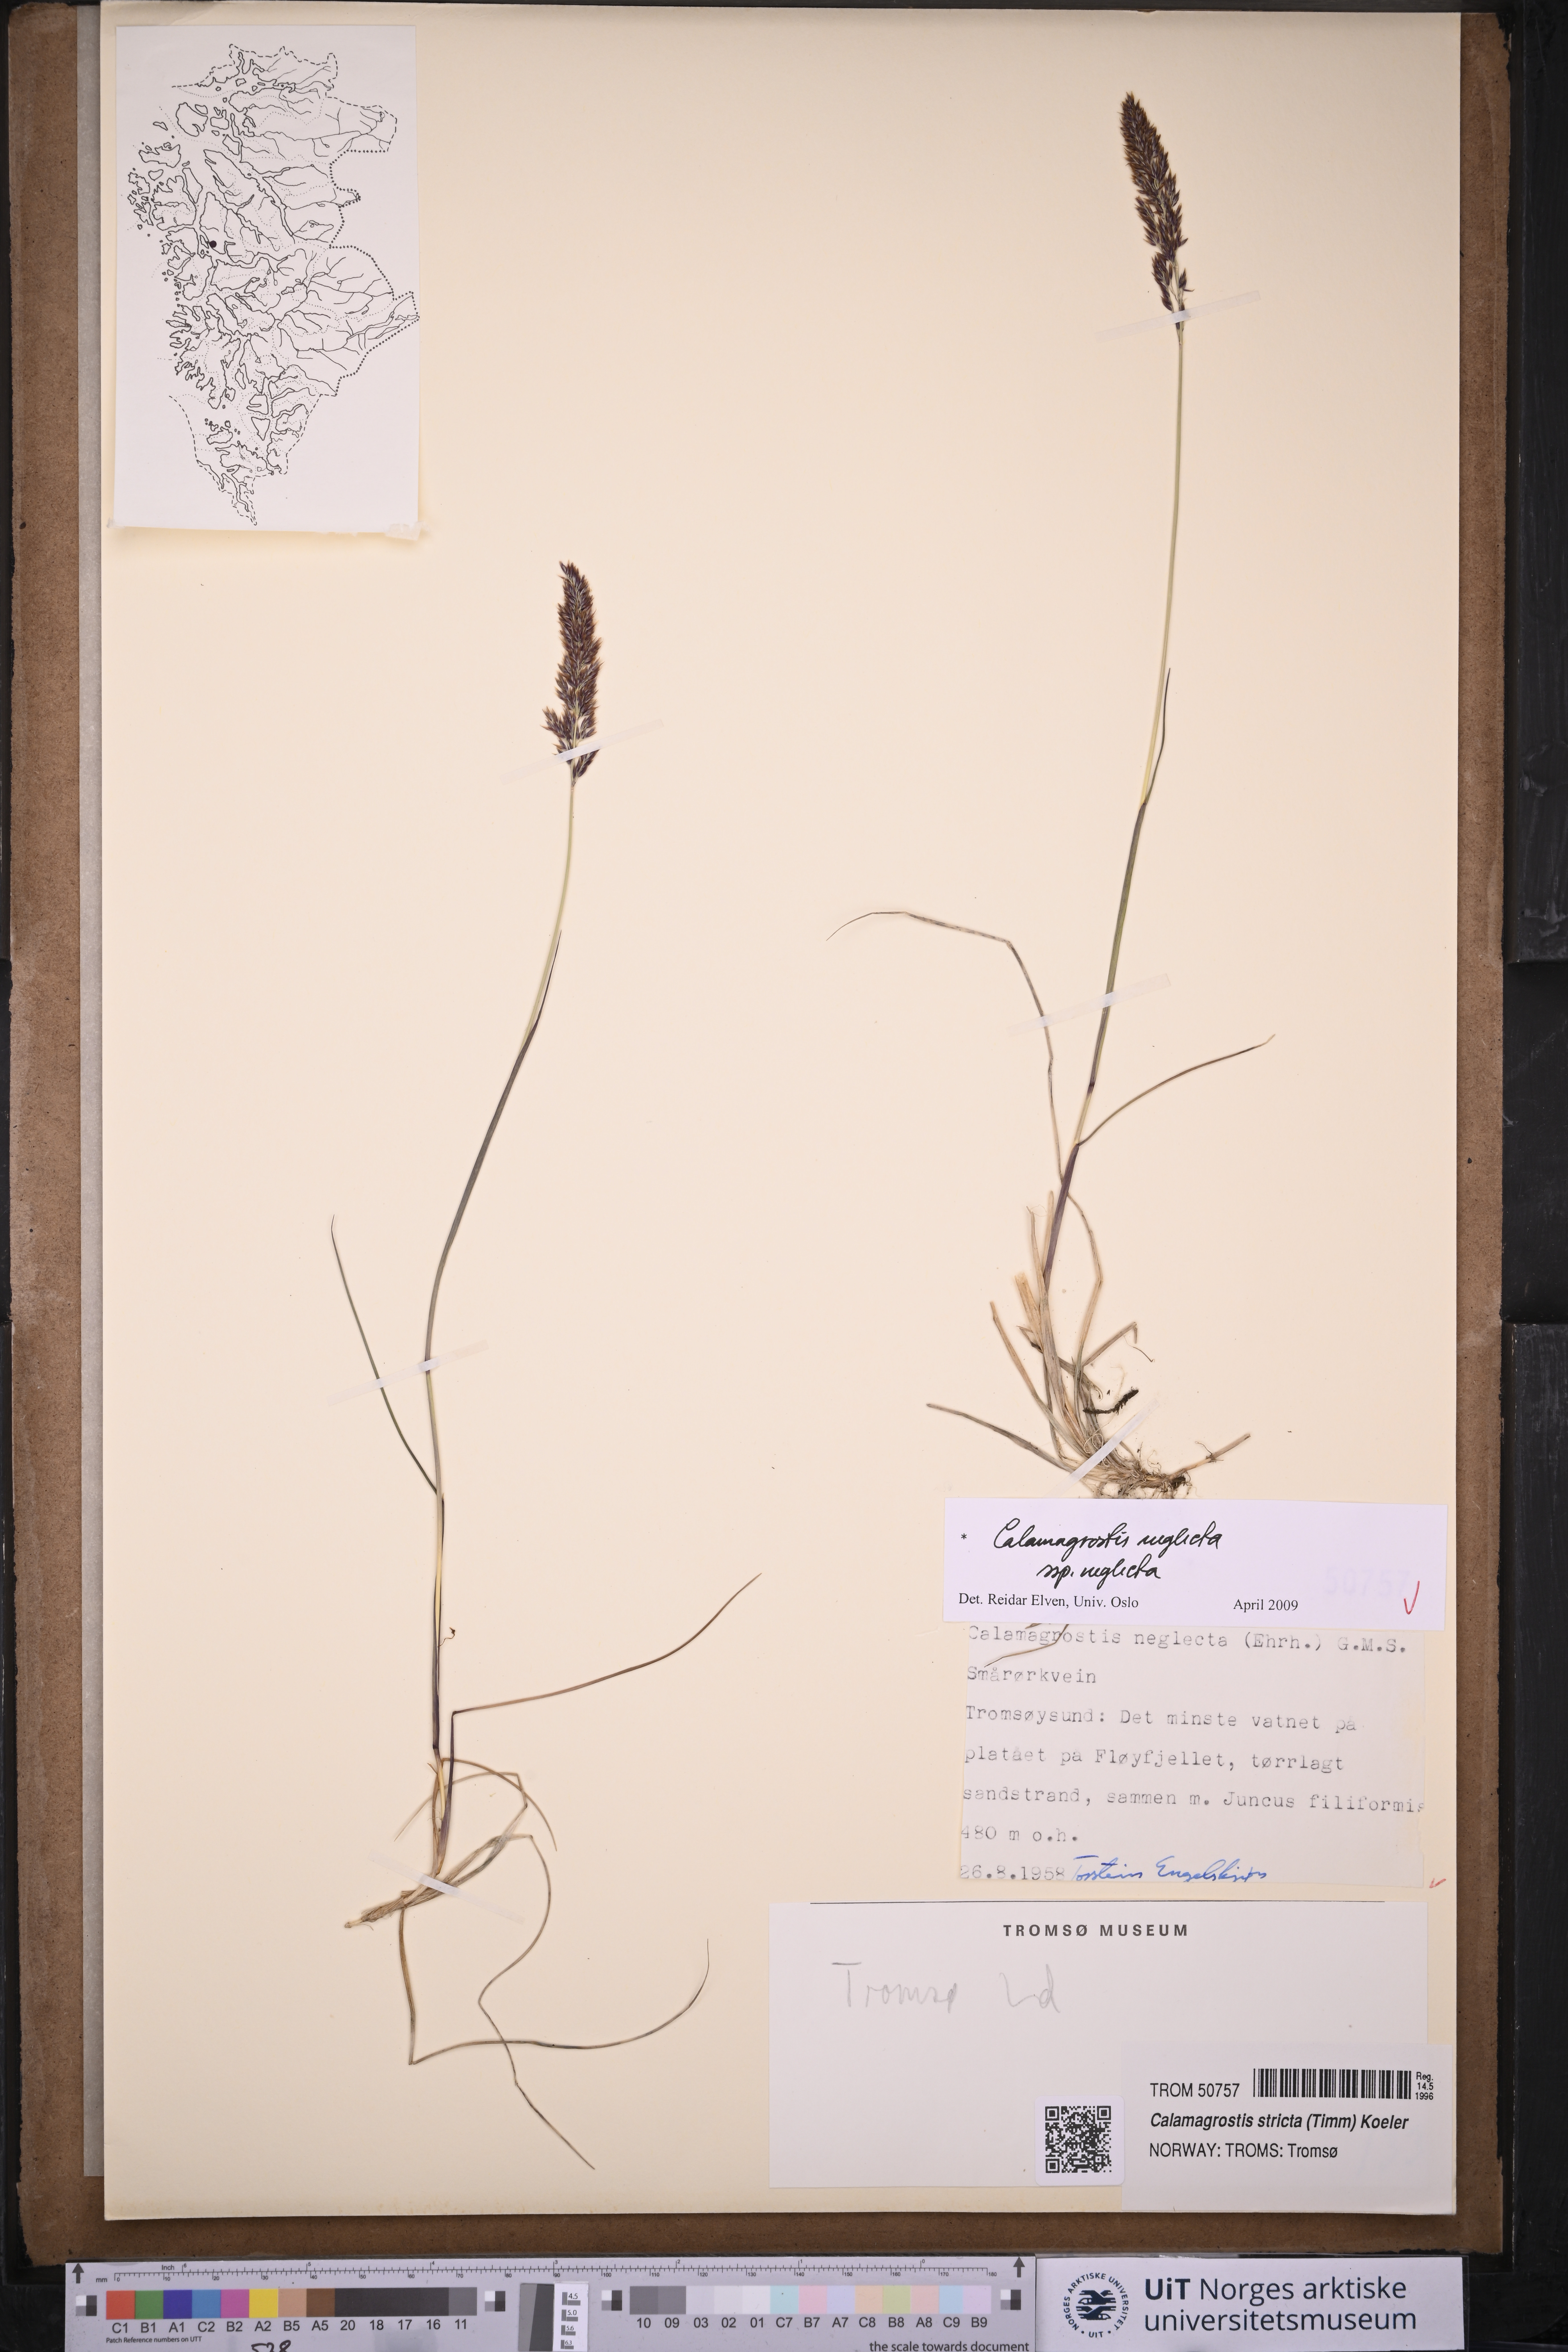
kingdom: Plantae
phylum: Tracheophyta
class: Liliopsida
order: Poales
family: Poaceae
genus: Achnatherum
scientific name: Achnatherum calamagrostis
